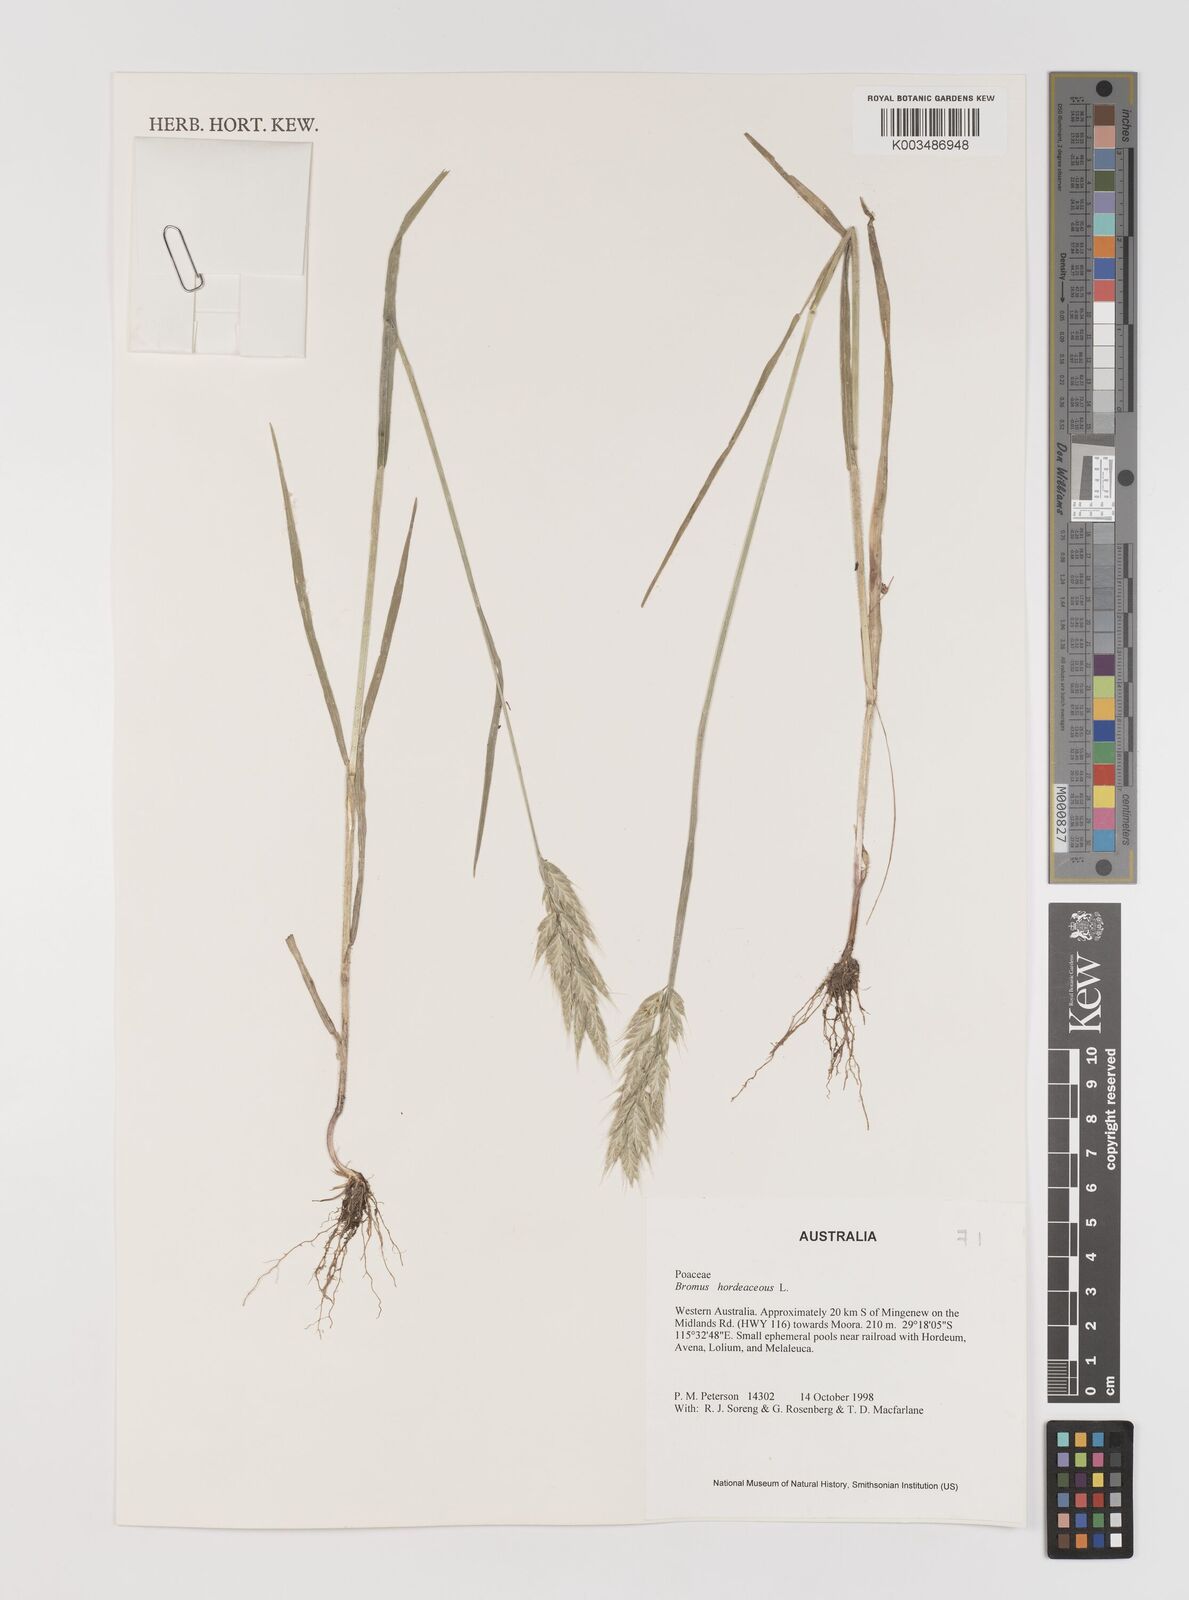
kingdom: Plantae
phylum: Tracheophyta
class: Liliopsida
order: Poales
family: Poaceae
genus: Bromus
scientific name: Bromus hordeaceus
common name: Soft brome
